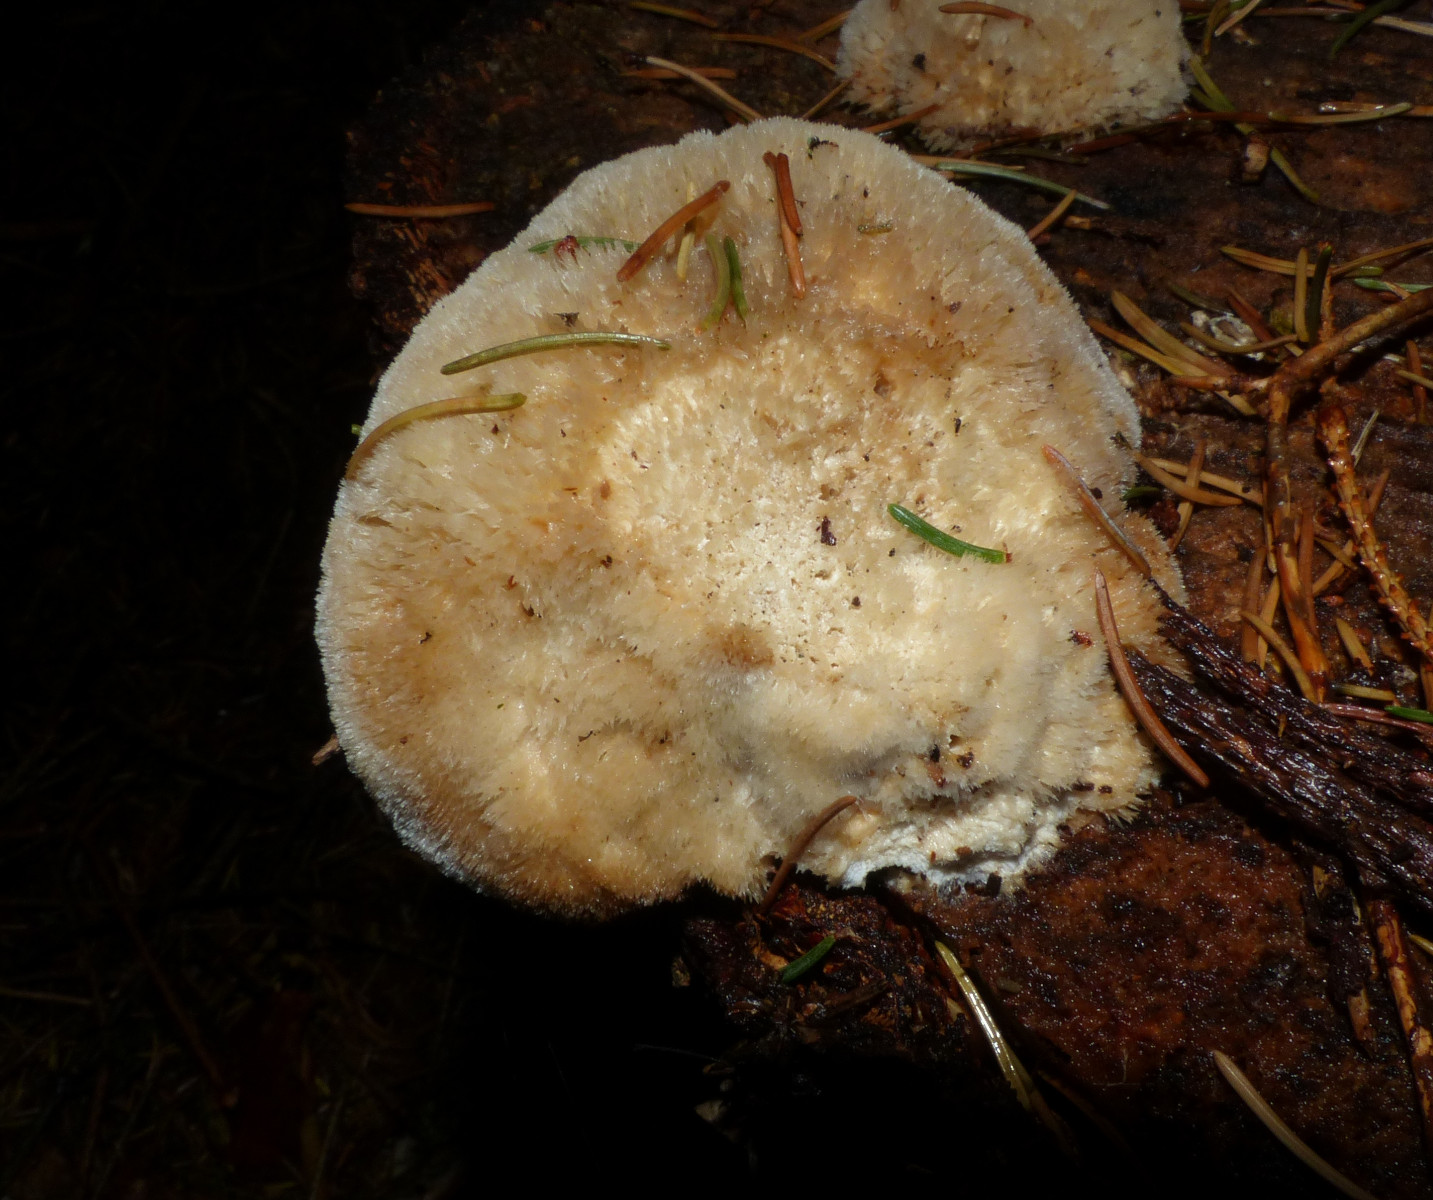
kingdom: Fungi
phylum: Basidiomycota
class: Agaricomycetes
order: Polyporales
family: Dacryobolaceae
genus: Postia
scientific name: Postia ptychogaster
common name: støvende kødporesvamp
